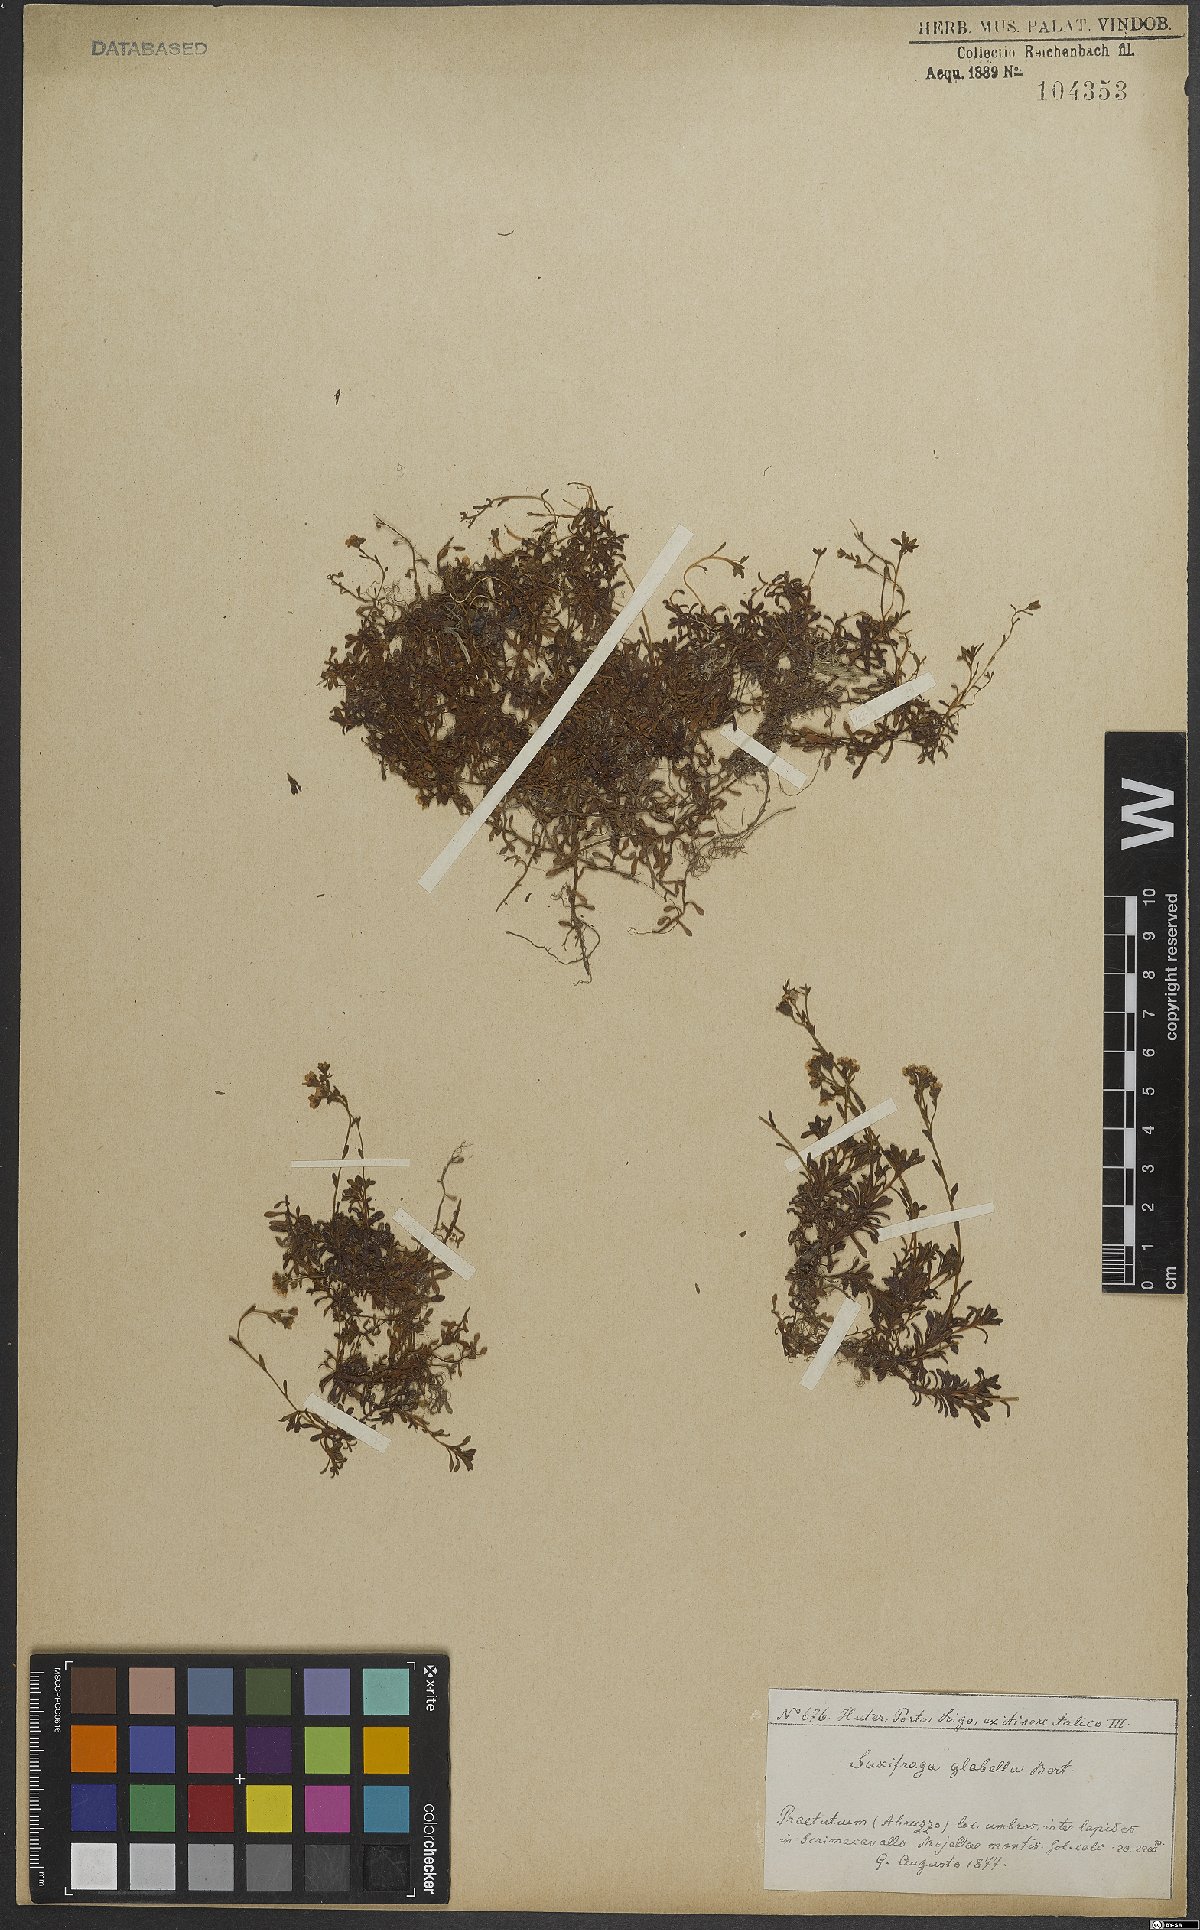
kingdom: Plantae
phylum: Tracheophyta
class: Magnoliopsida
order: Saxifragales
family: Saxifragaceae
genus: Saxifraga
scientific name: Saxifraga glabella
